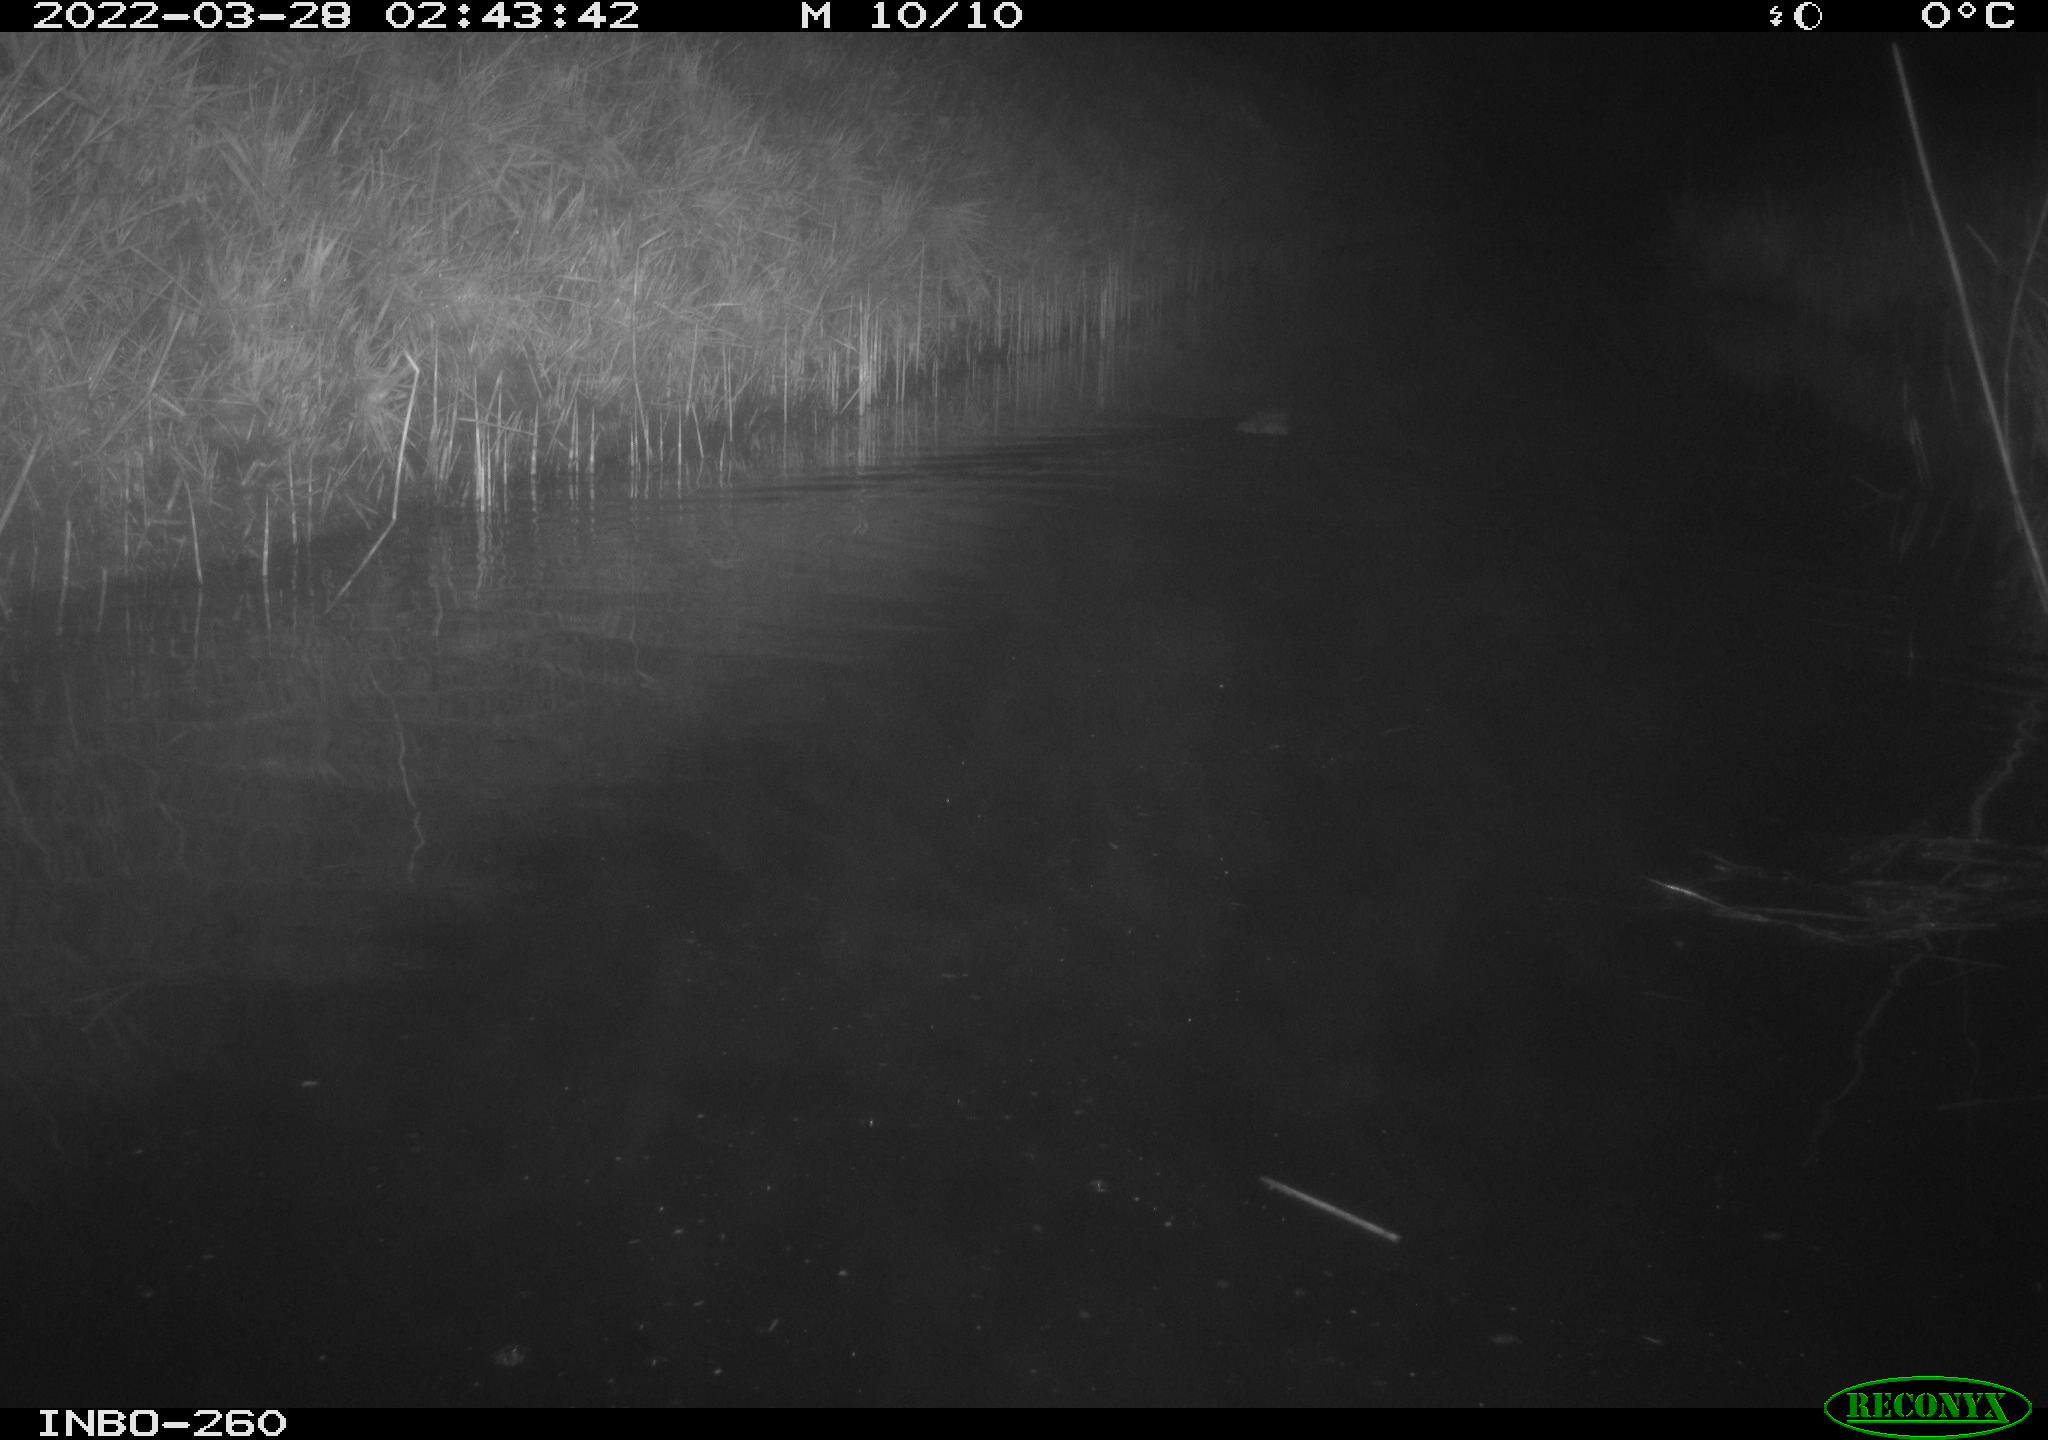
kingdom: Animalia
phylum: Chordata
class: Mammalia
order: Rodentia
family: Cricetidae
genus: Ondatra
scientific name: Ondatra zibethicus
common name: Muskrat
